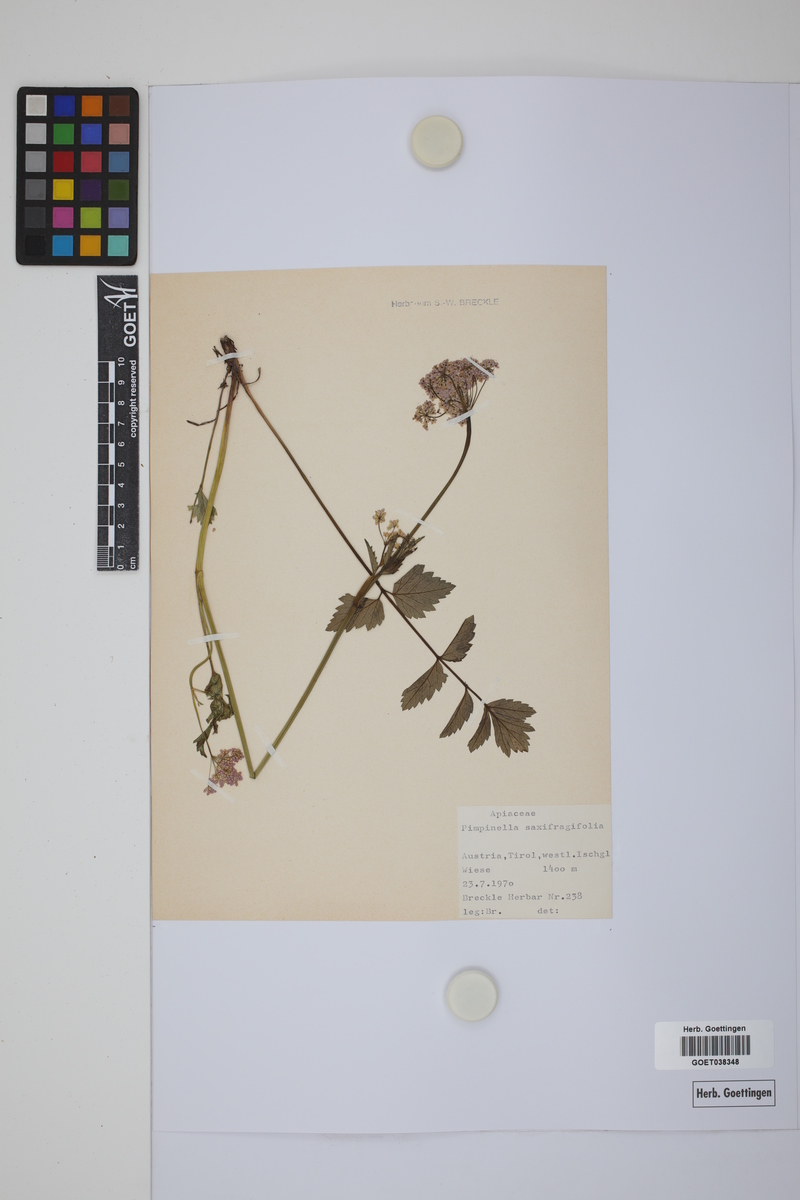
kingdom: Plantae
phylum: Tracheophyta
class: Magnoliopsida
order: Apiales
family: Apiaceae
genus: Pimpinella
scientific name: Pimpinella saxifraga
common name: Burnet-saxifrage
